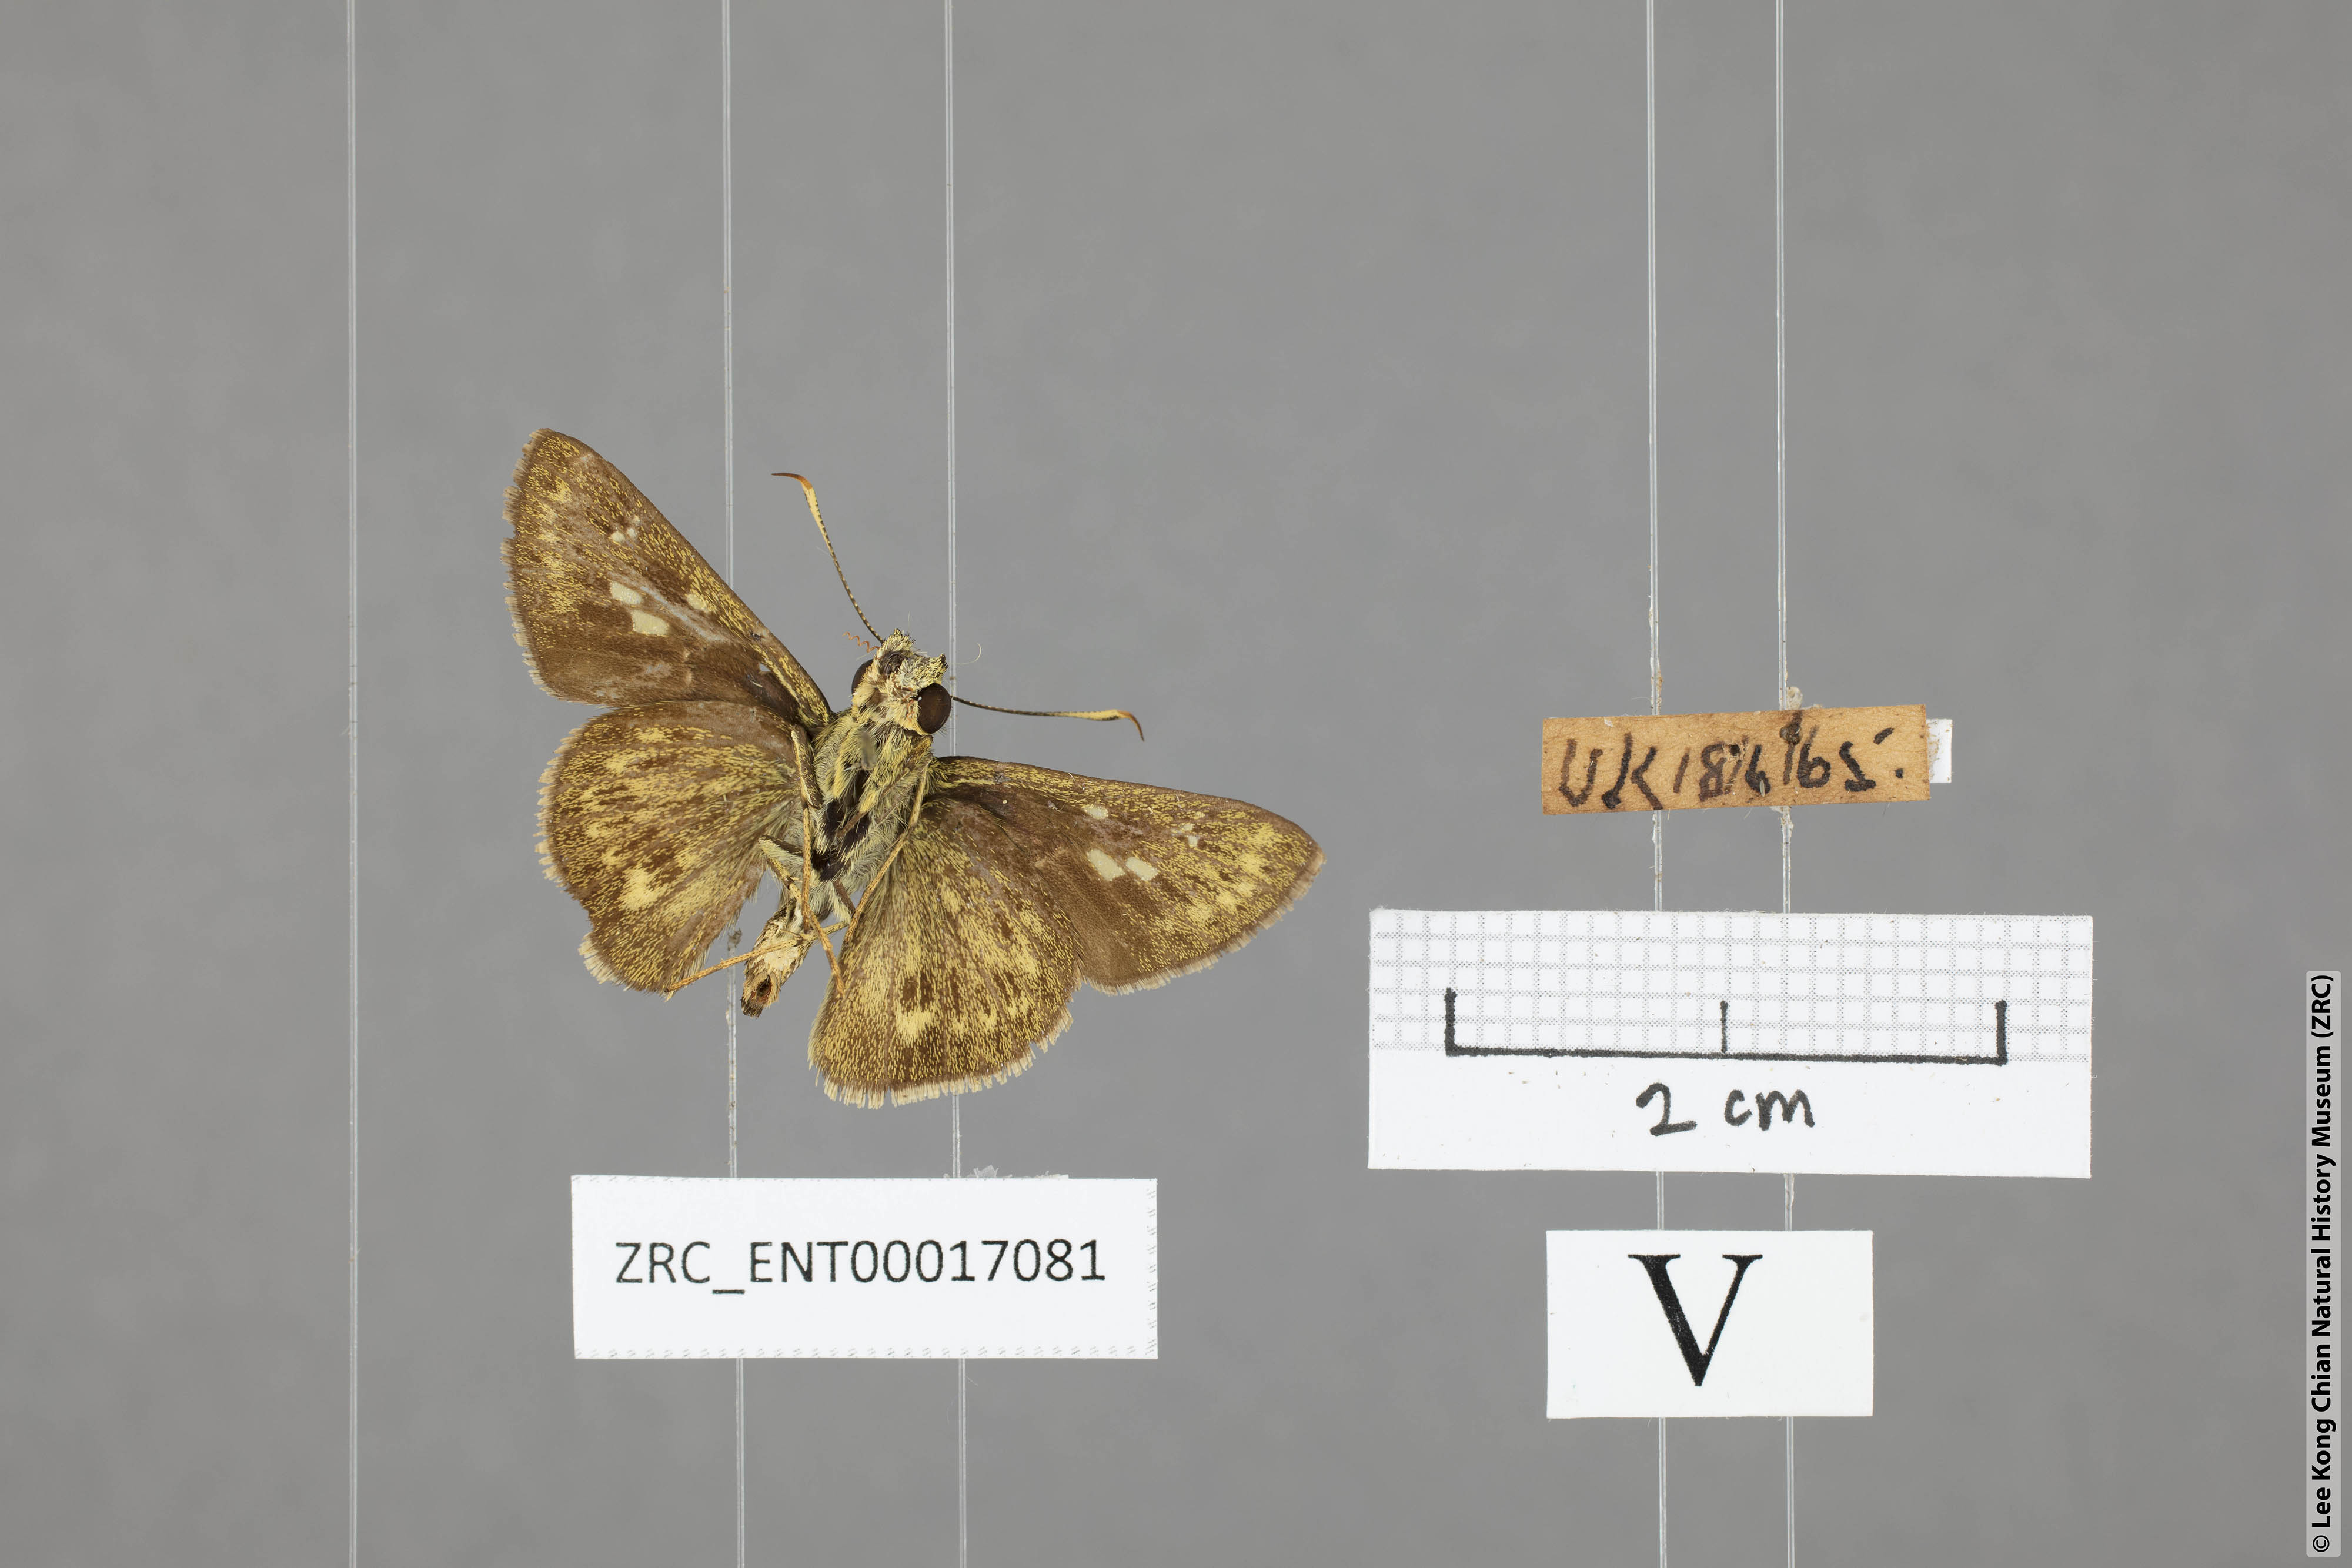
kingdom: Animalia
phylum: Arthropoda
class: Insecta
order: Lepidoptera
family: Hesperiidae
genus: Halpe
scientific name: Halpe veluvana
